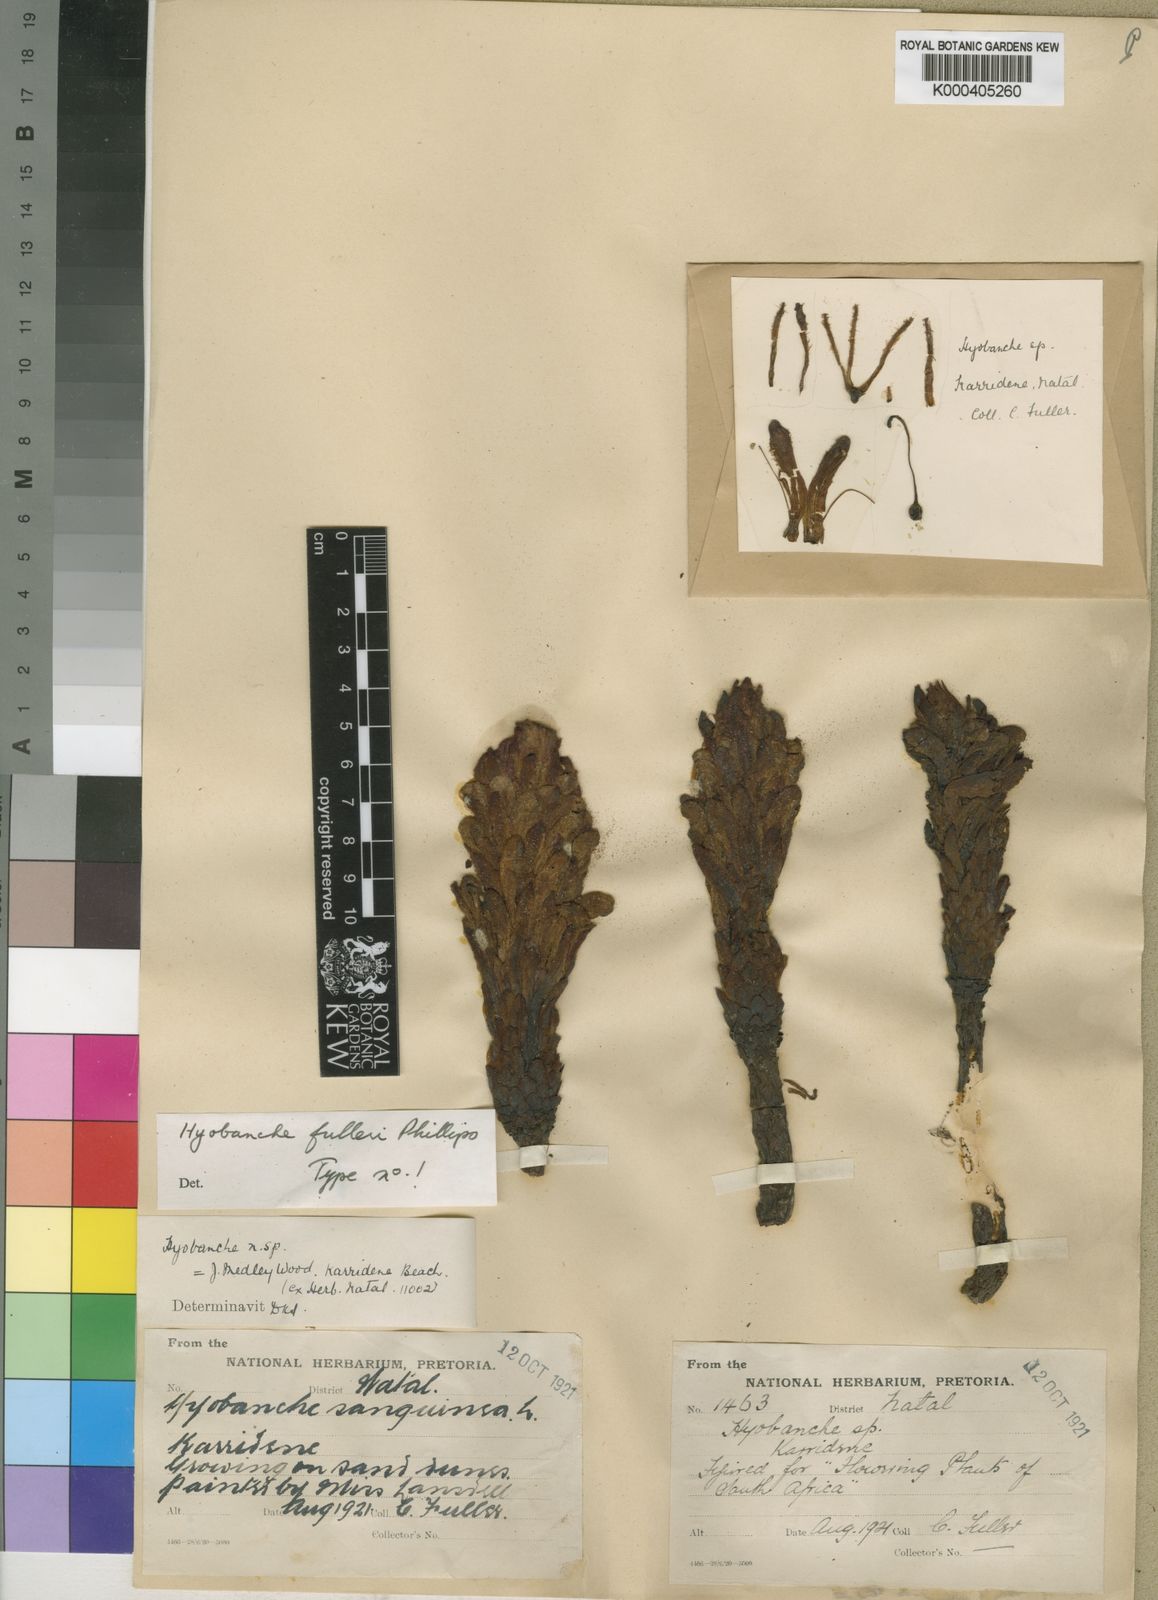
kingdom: Plantae
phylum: Tracheophyta
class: Magnoliopsida
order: Lamiales
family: Orobanchaceae
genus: Hyobanche
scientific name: Hyobanche fulleri
